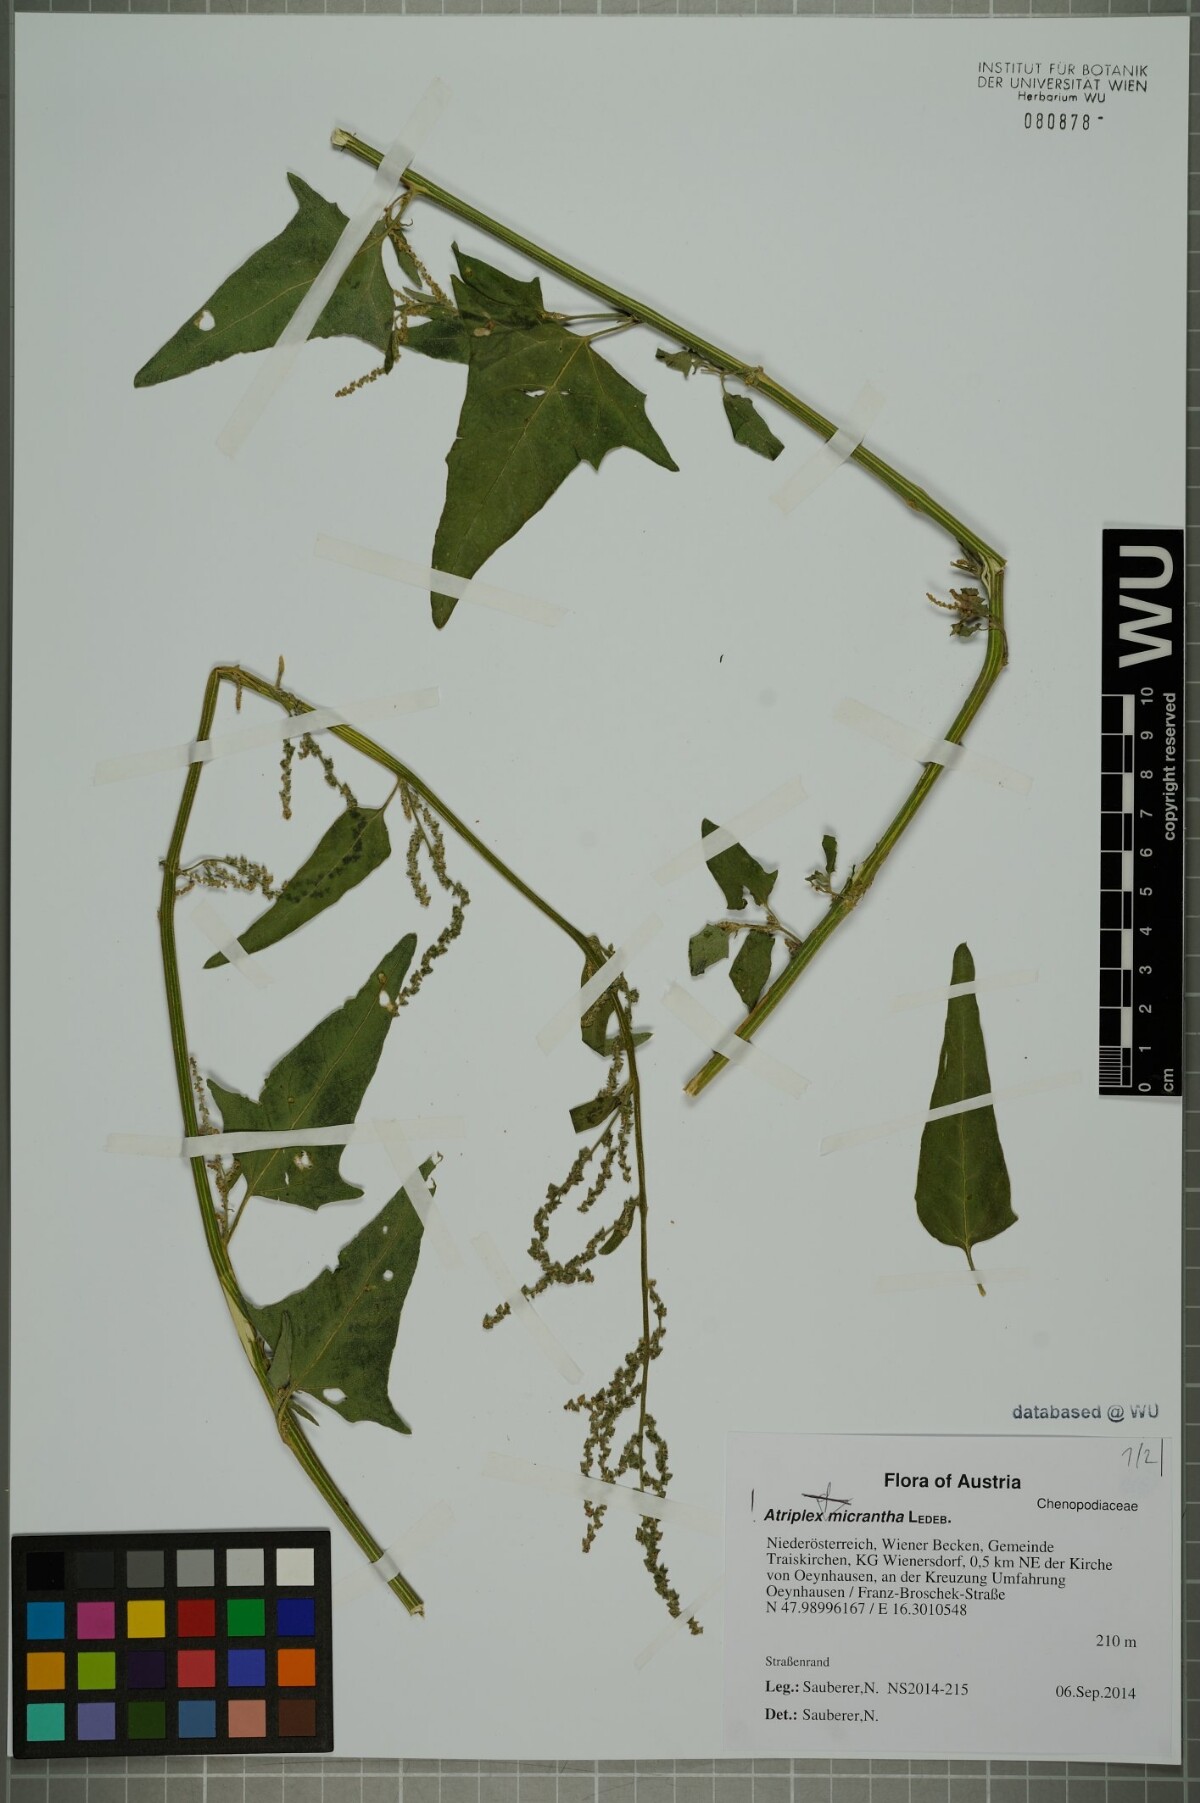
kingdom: Plantae
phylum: Tracheophyta
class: Magnoliopsida
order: Caryophyllales
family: Amaranthaceae
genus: Atriplex
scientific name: Atriplex micrantha
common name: Twoscale saltbush
